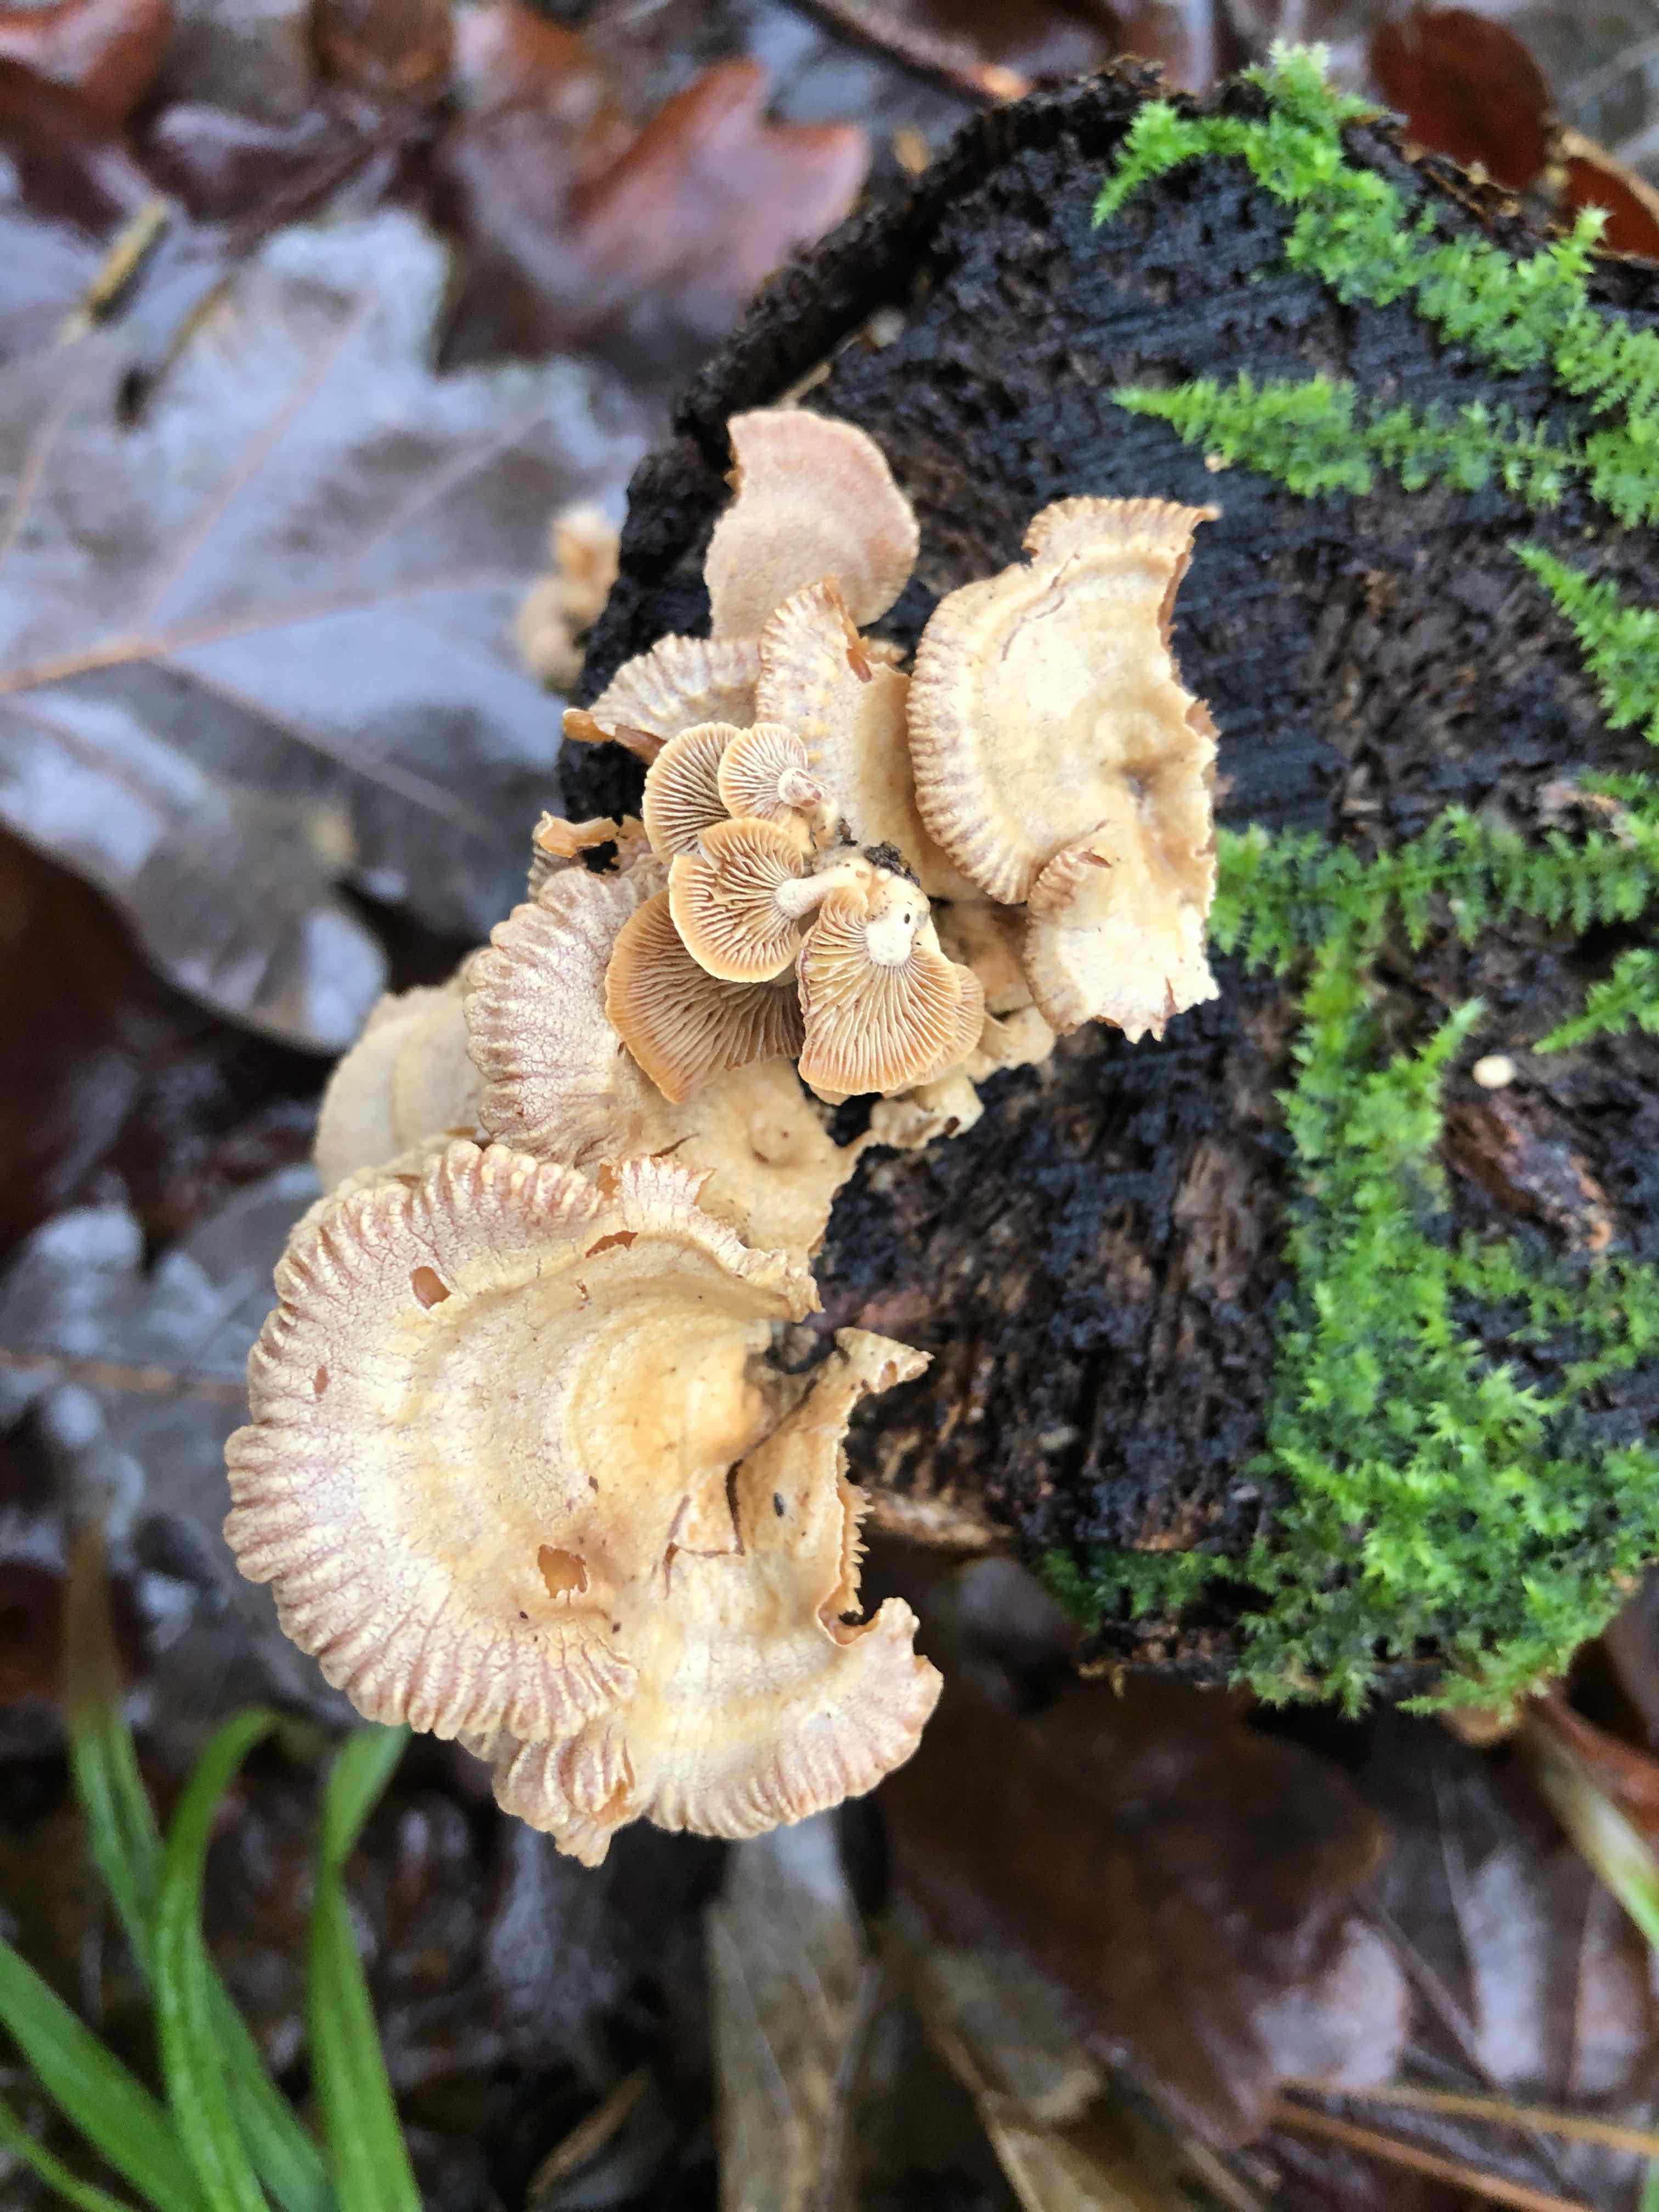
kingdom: Fungi
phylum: Basidiomycota
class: Agaricomycetes
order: Agaricales
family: Mycenaceae
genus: Panellus
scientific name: Panellus stipticus
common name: kliddet epaulethat
